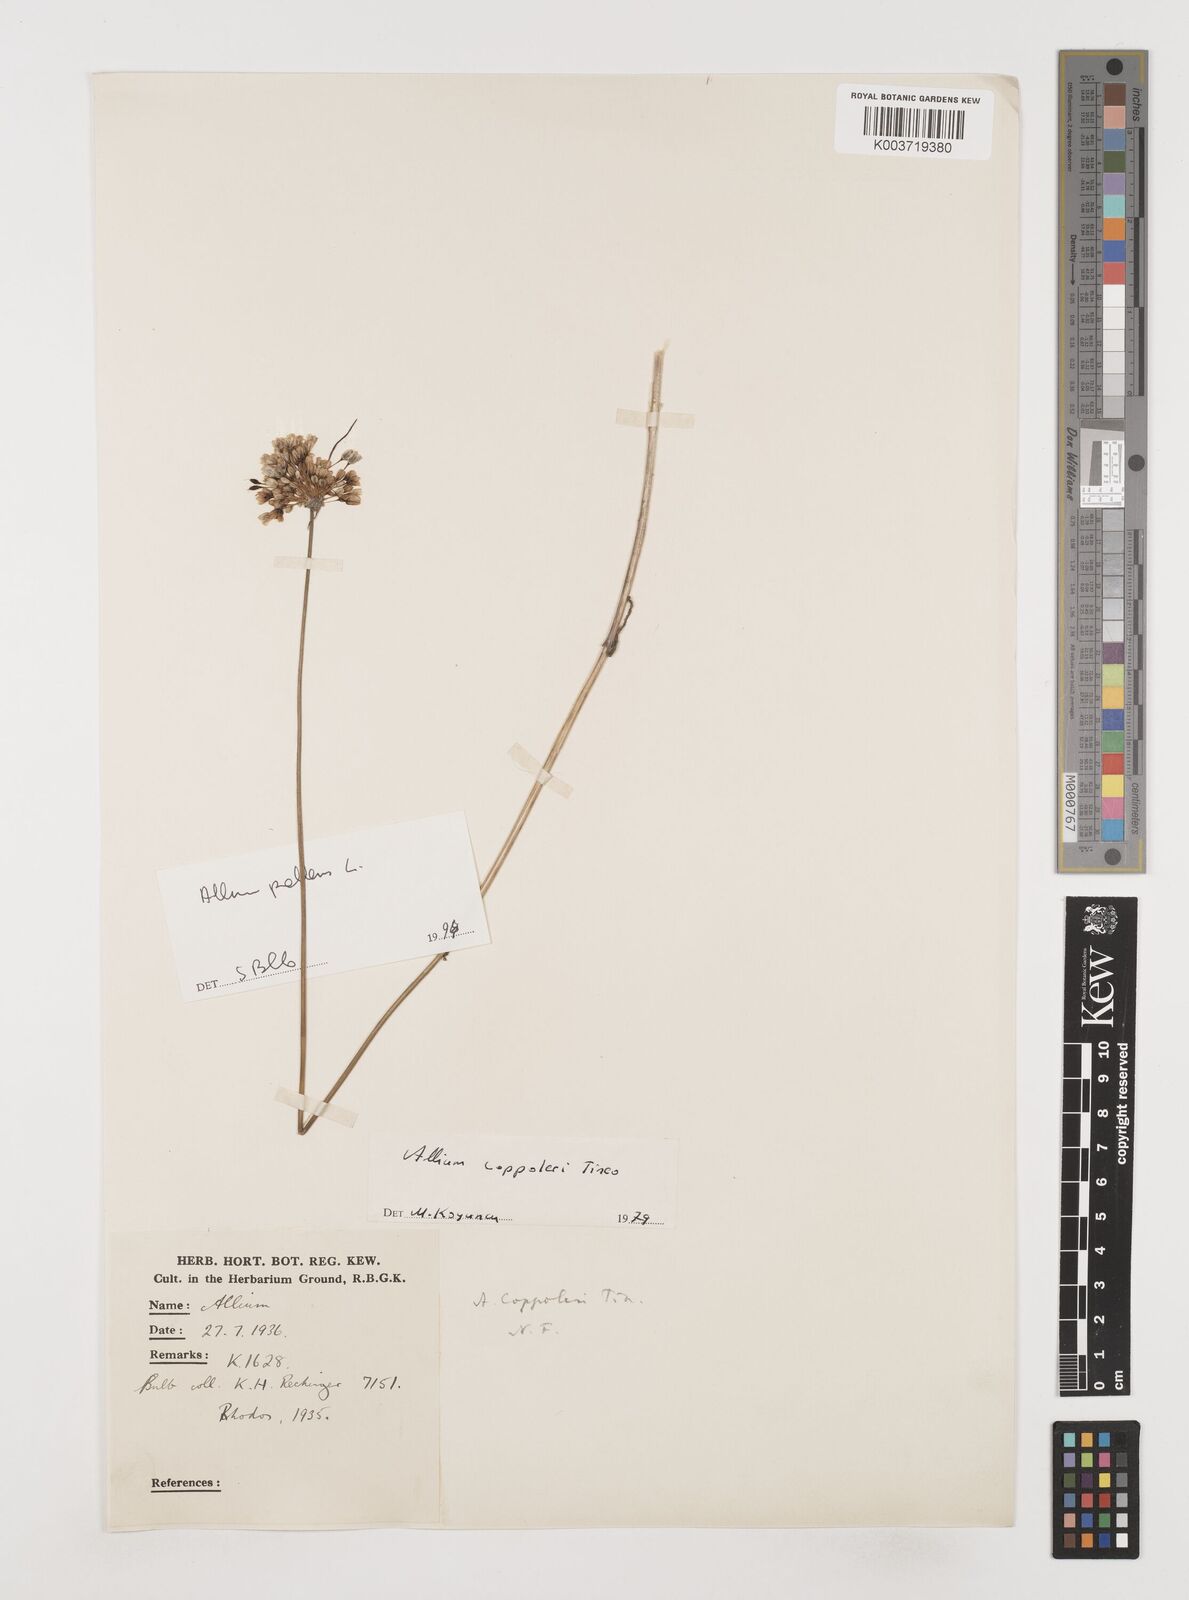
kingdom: Plantae
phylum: Tracheophyta
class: Liliopsida
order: Asparagales
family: Amaryllidaceae
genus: Allium
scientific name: Allium coppoleri
